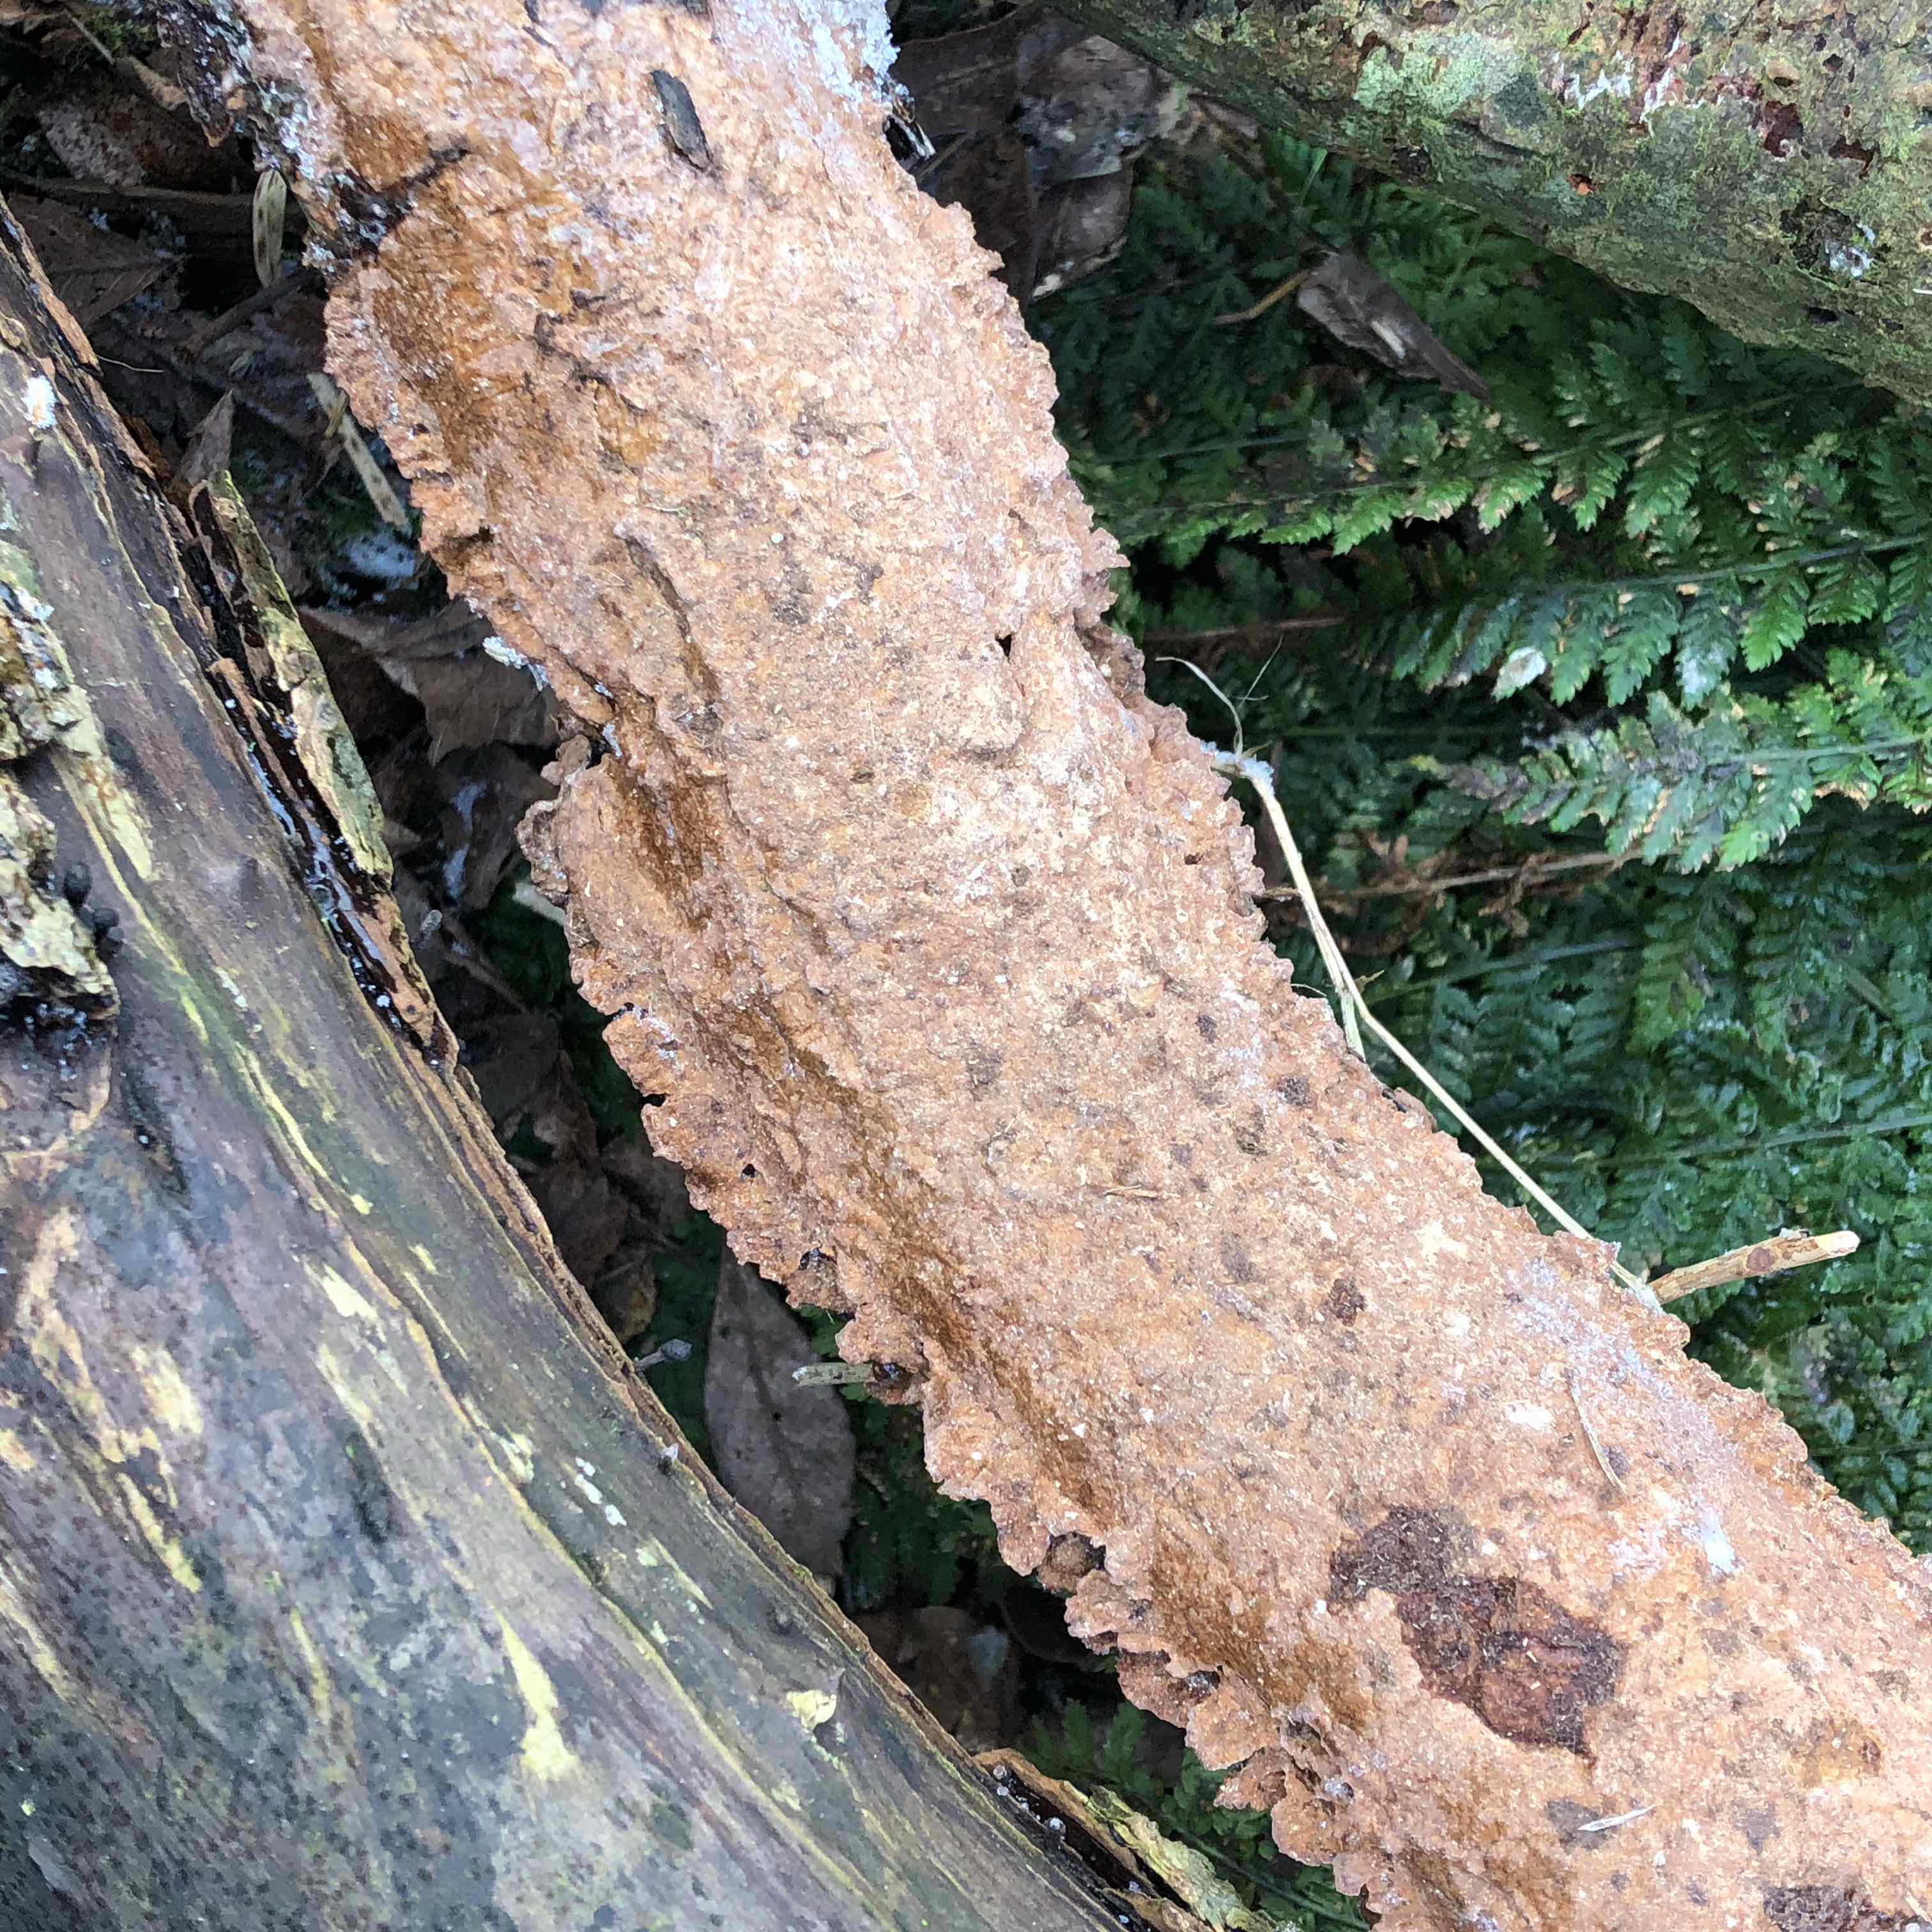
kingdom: Fungi
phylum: Basidiomycota
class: Agaricomycetes
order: Hymenochaetales
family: Hymenochaetaceae
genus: Hydnoporia
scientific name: Hydnoporia tabacina
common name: tobaksbrun ruslædersvamp
